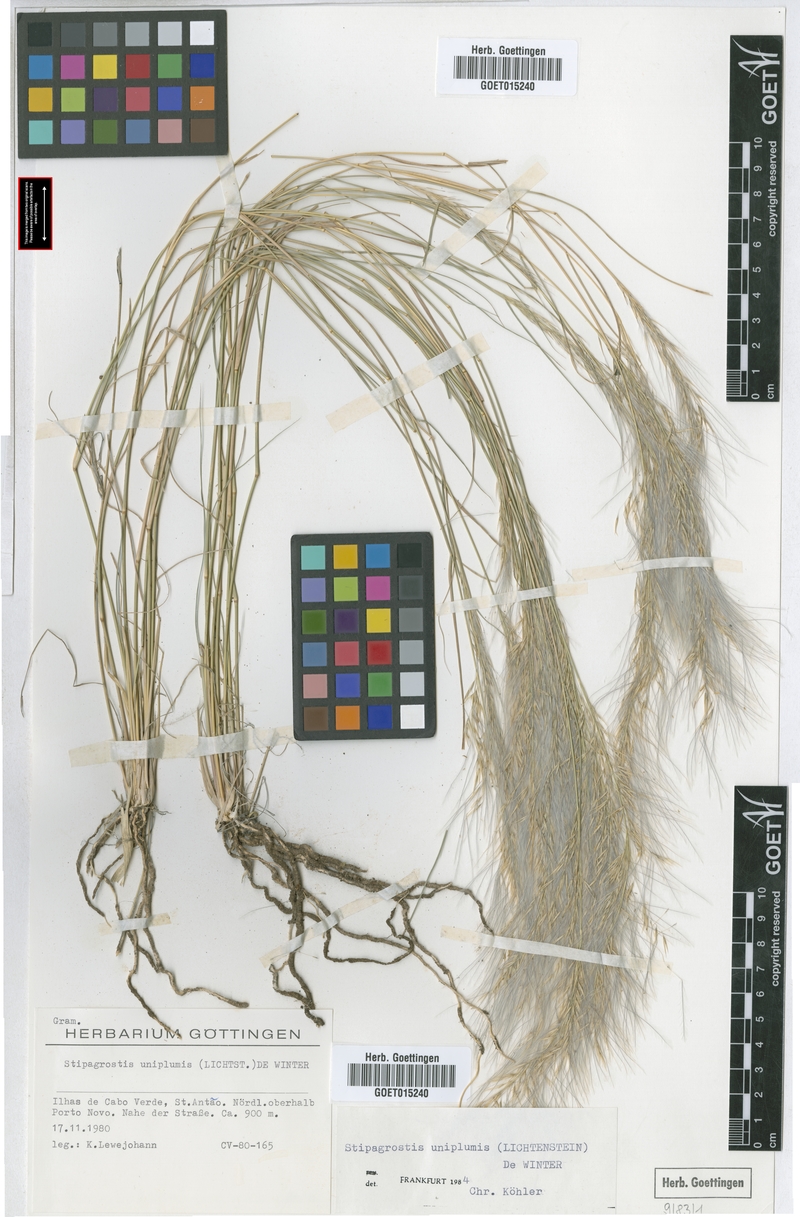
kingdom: Plantae
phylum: Tracheophyta
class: Liliopsida
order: Poales
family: Poaceae
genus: Stipagrostis
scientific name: Stipagrostis uniplumis
